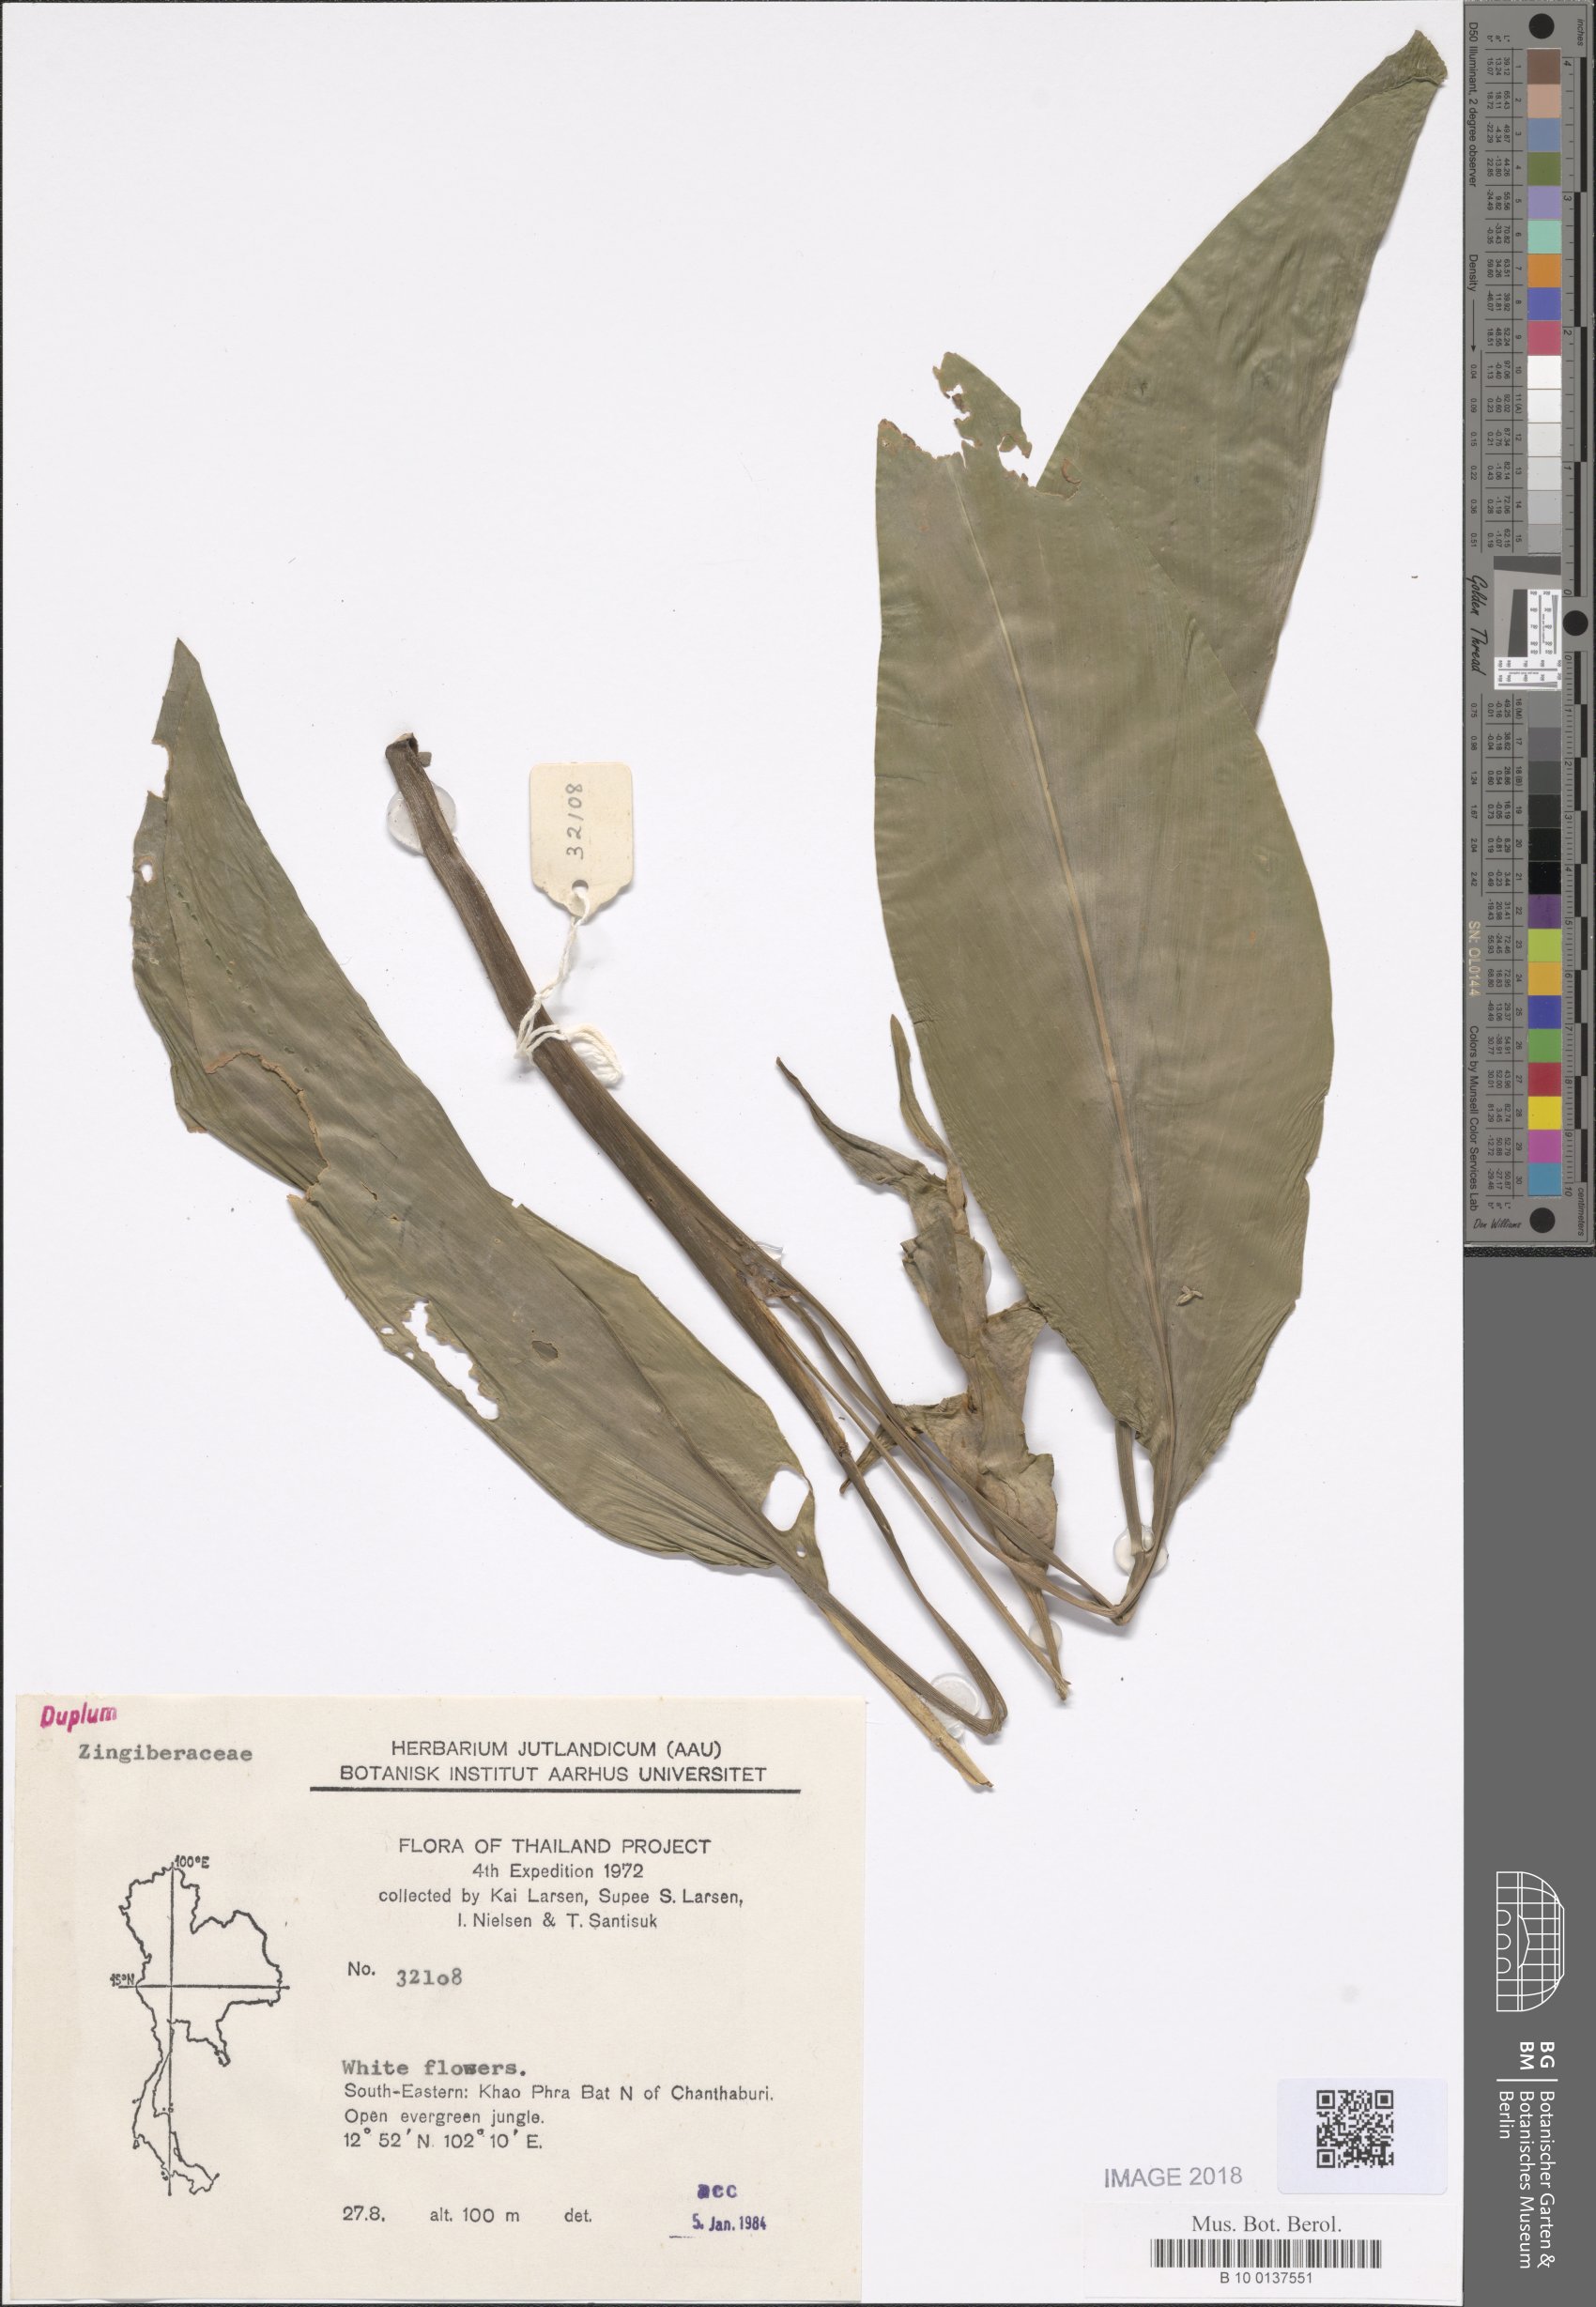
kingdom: Plantae
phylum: Tracheophyta
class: Liliopsida
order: Zingiberales
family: Zingiberaceae
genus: Curcuma
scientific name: Curcuma harmandii
